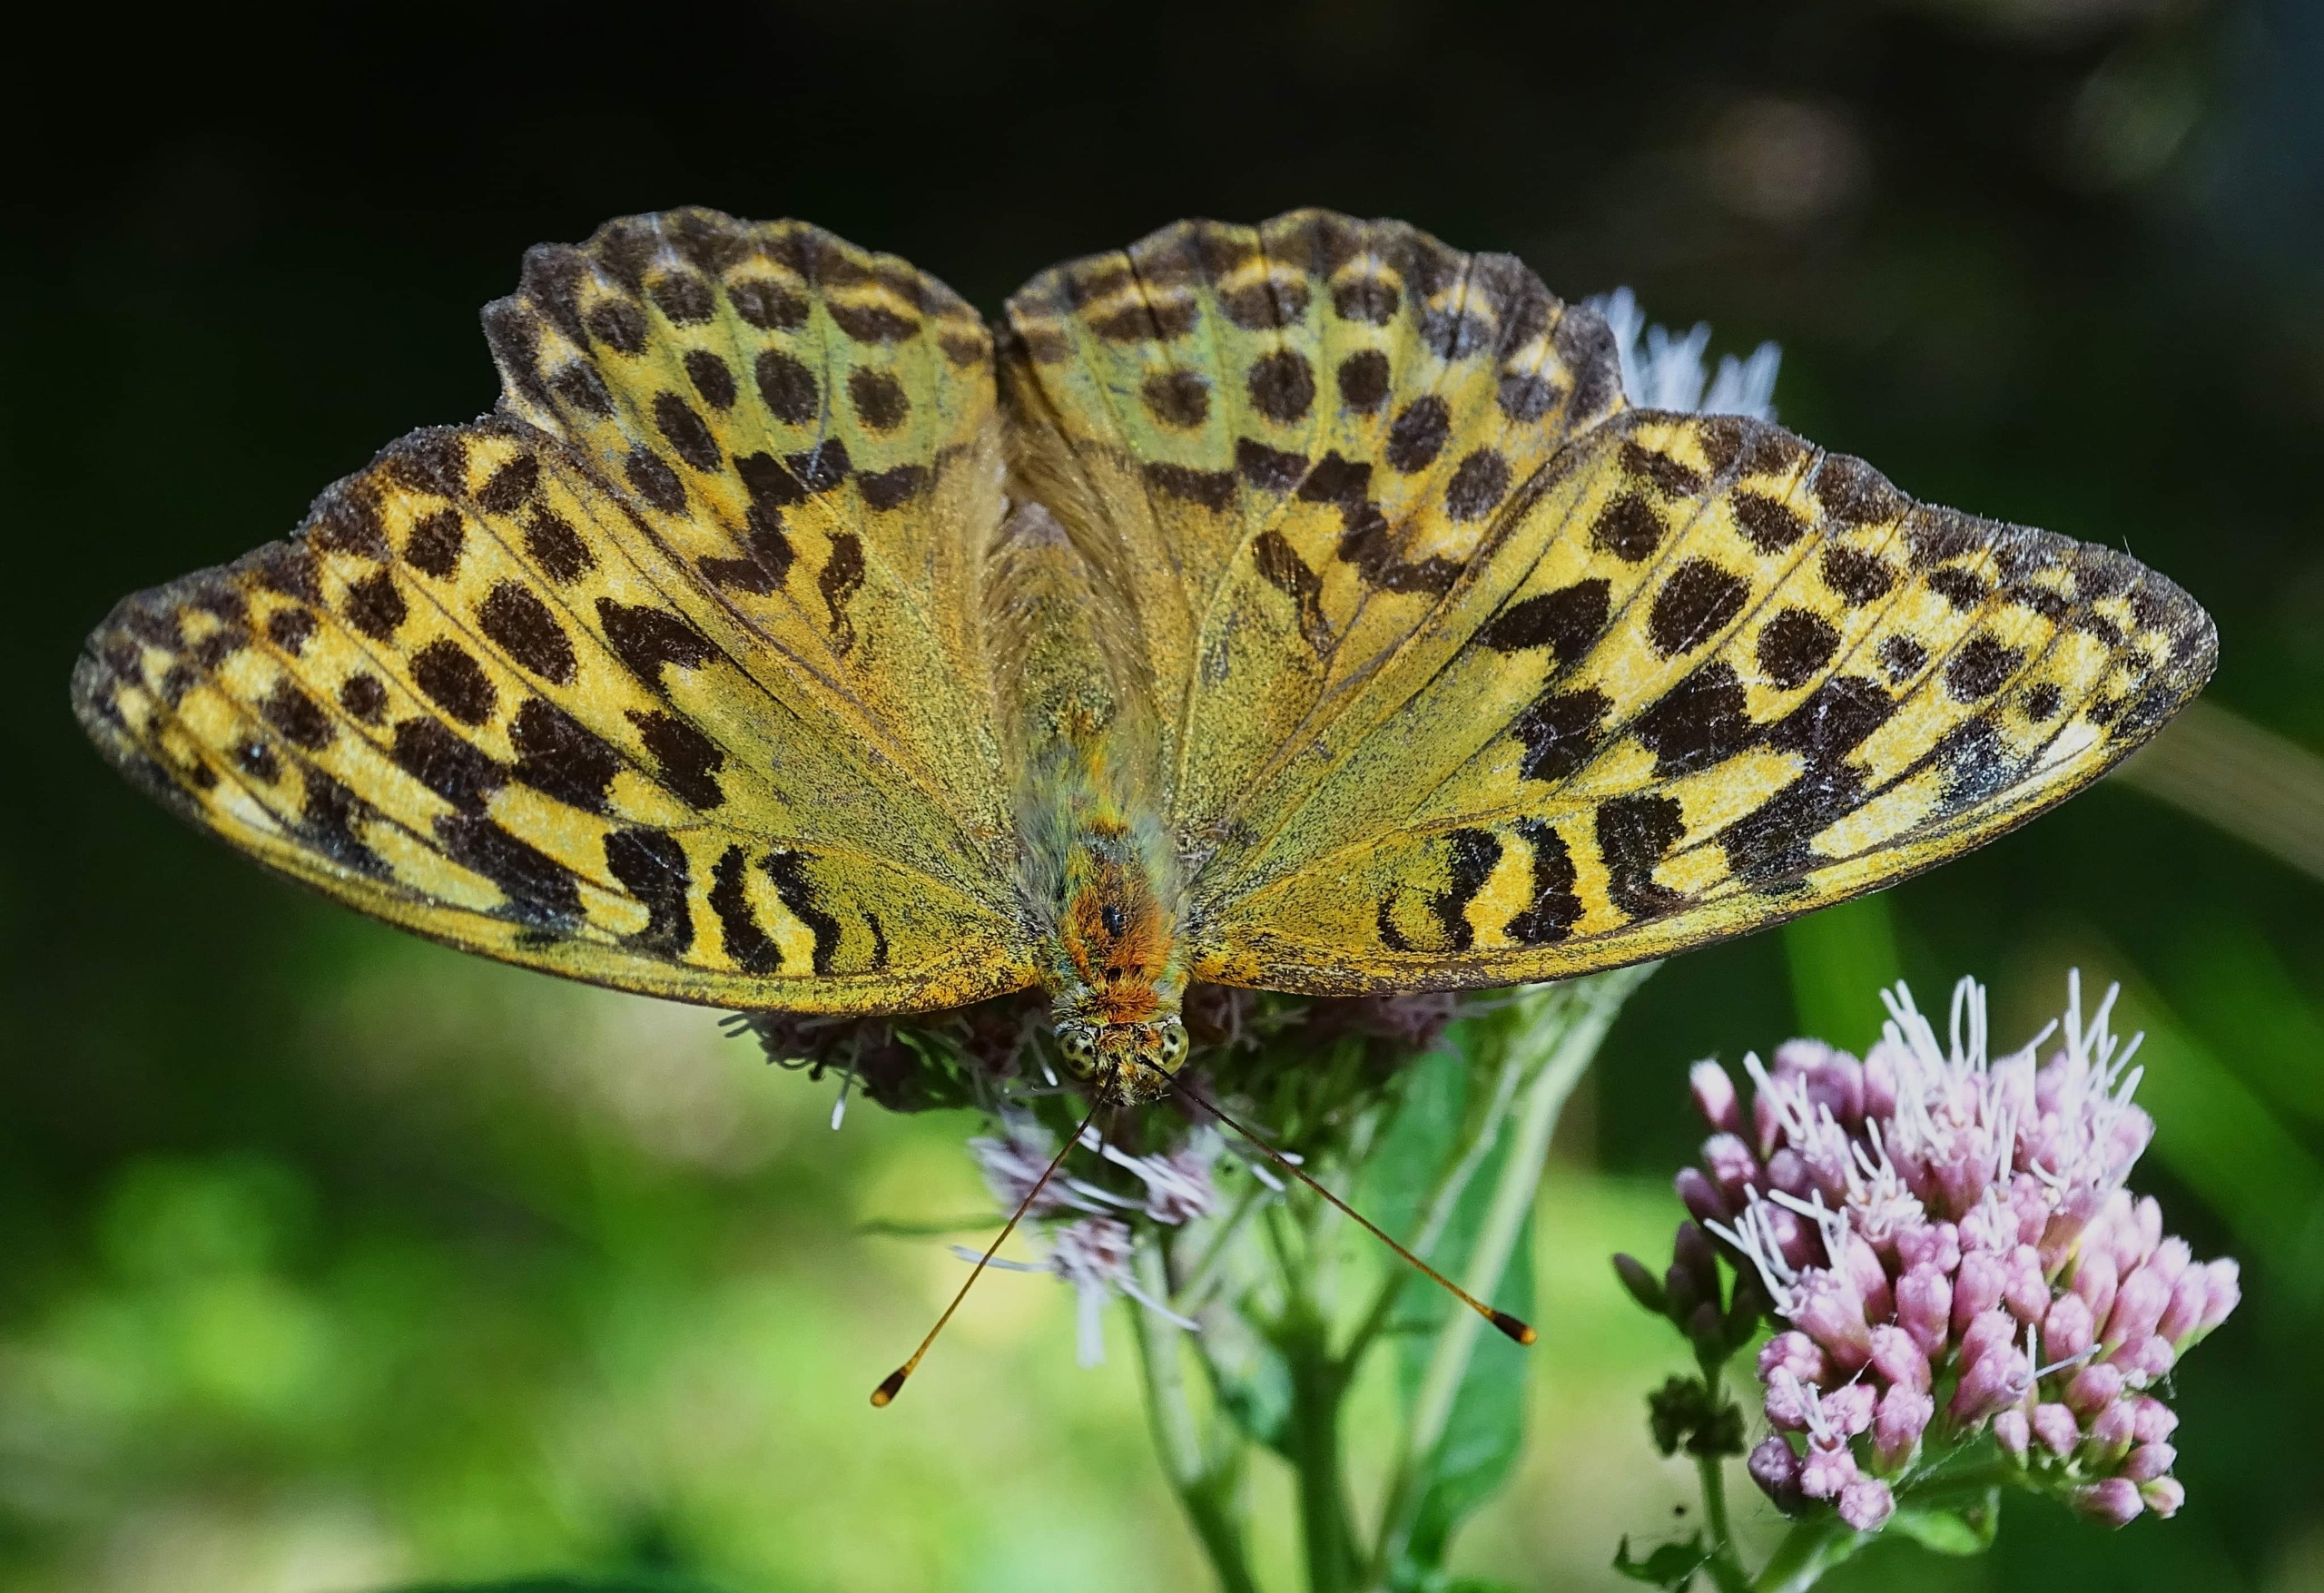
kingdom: Animalia
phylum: Arthropoda
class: Insecta
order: Lepidoptera
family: Nymphalidae
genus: Argynnis
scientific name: Argynnis paphia
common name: Kejserkåbe
